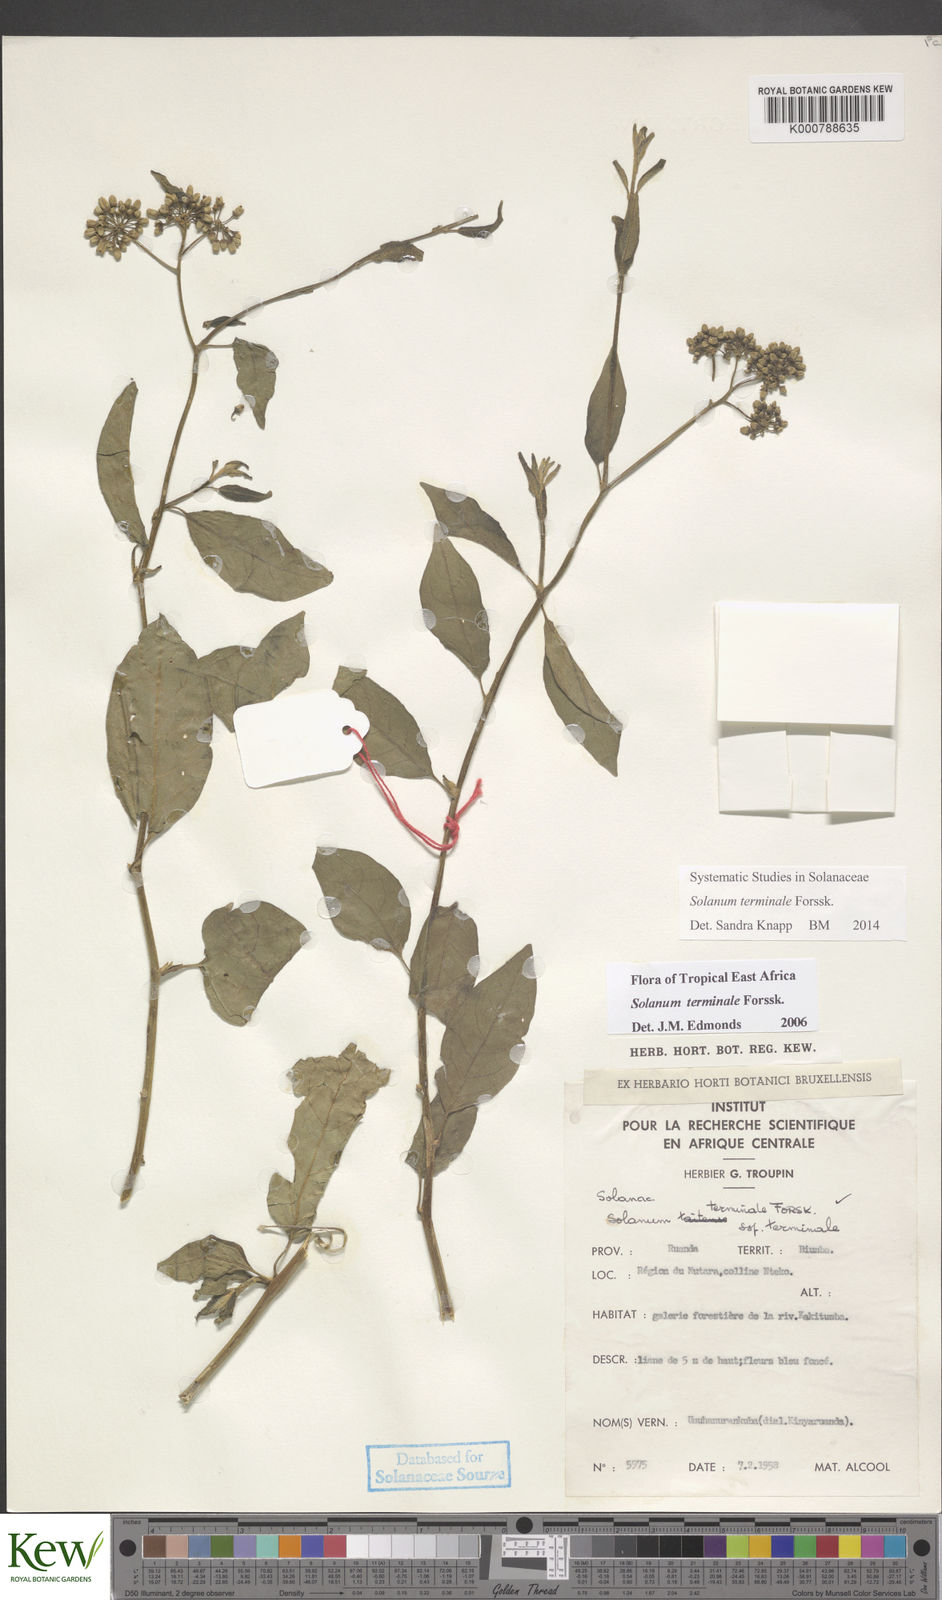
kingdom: Plantae
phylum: Tracheophyta
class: Magnoliopsida
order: Solanales
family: Solanaceae
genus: Solanum
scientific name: Solanum terminale
